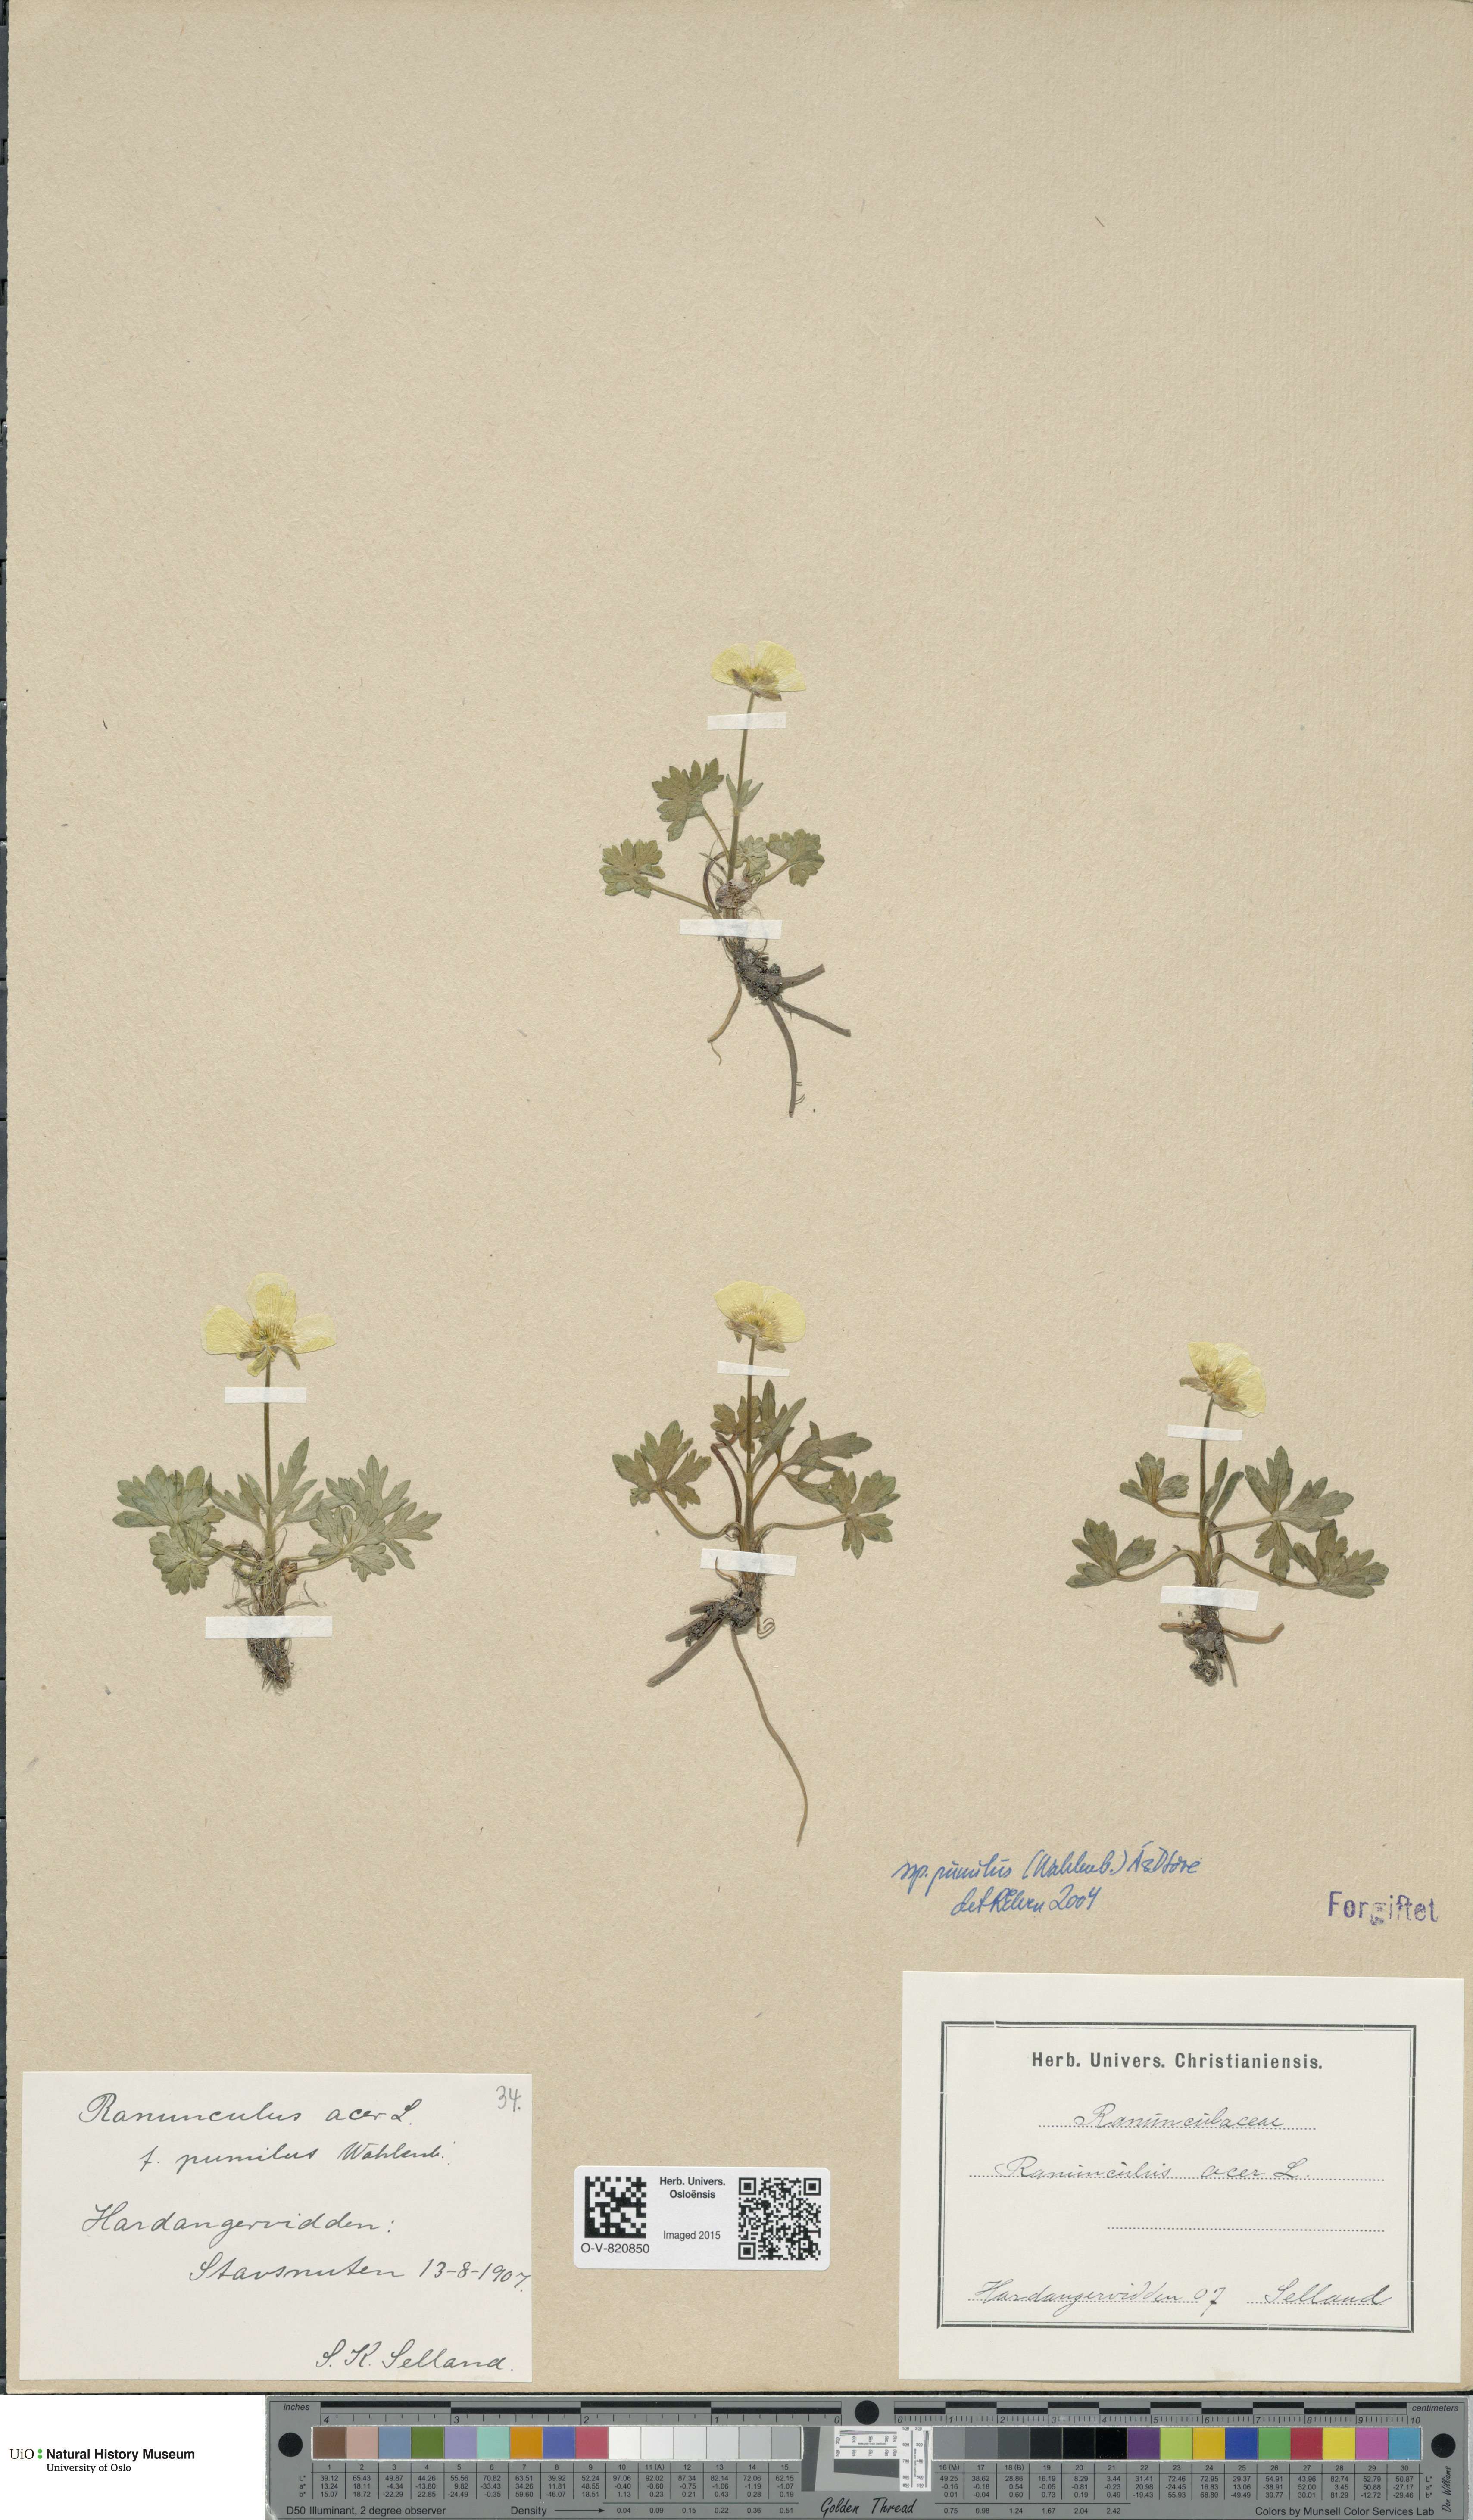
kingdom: Plantae
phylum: Tracheophyta
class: Magnoliopsida
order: Ranunculales
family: Ranunculaceae
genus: Ranunculus
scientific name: Ranunculus
